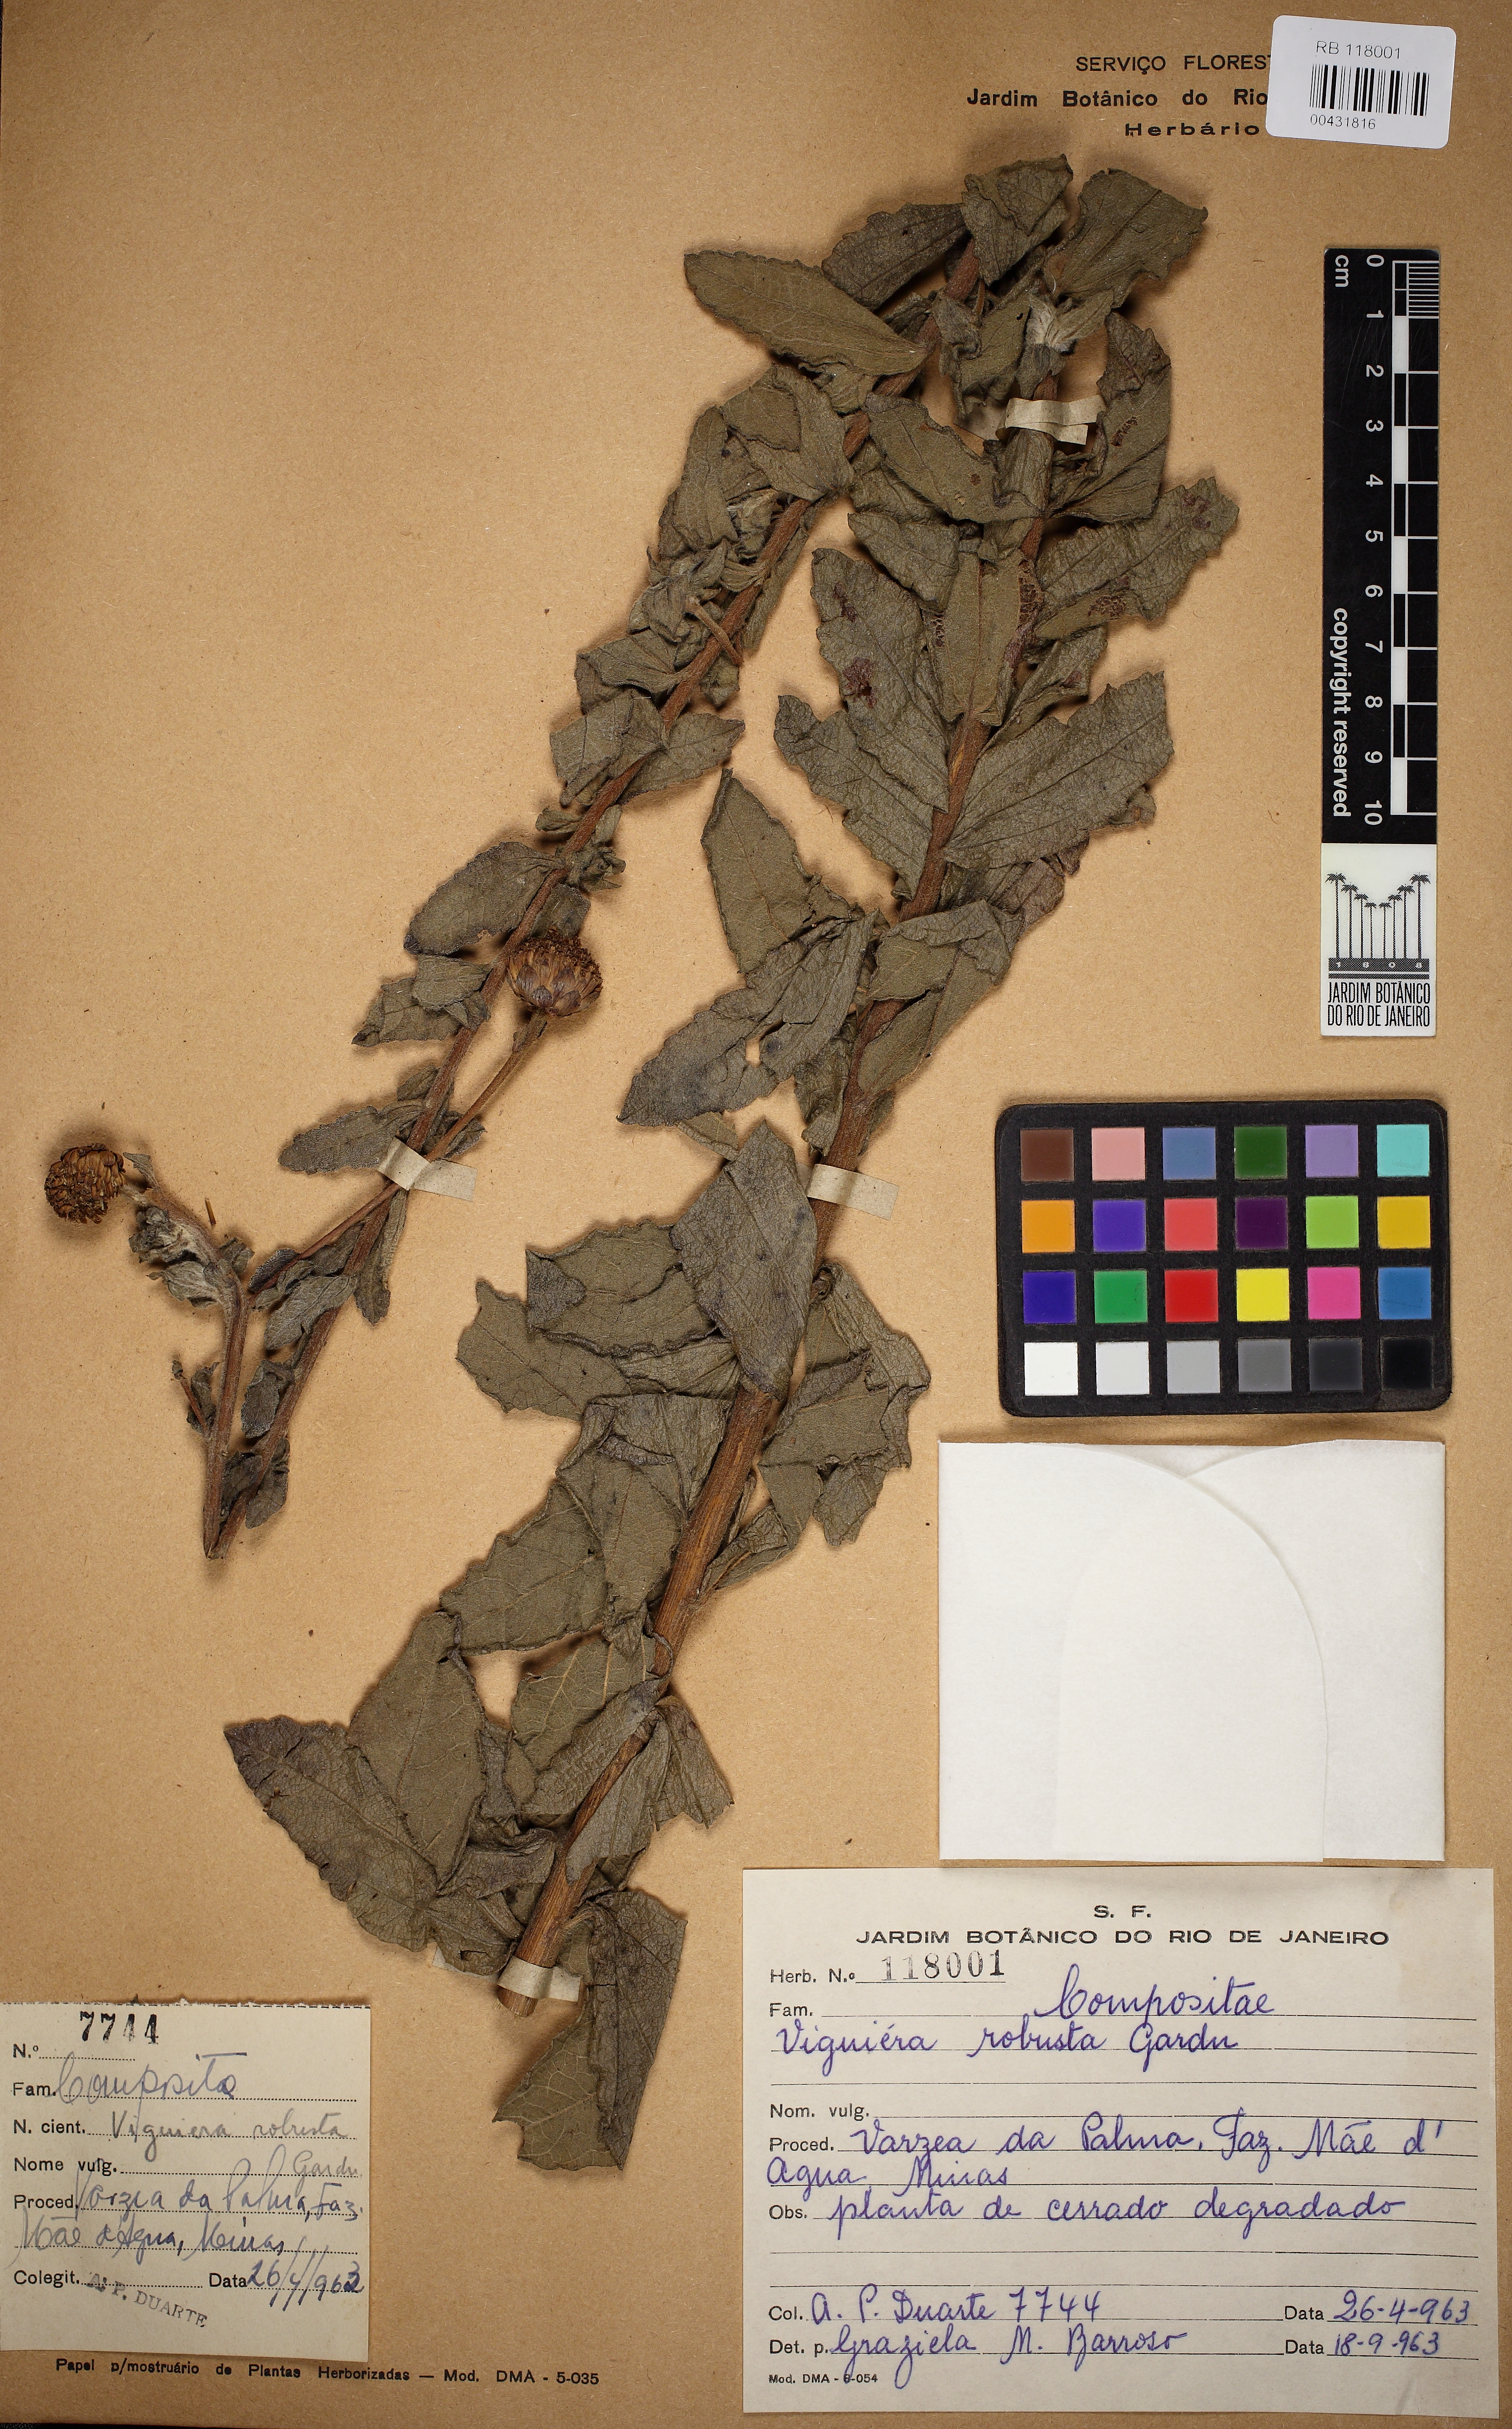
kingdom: Plantae
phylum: Tracheophyta
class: Magnoliopsida
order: Asterales
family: Asteraceae
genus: Aldama
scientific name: Aldama robusta
